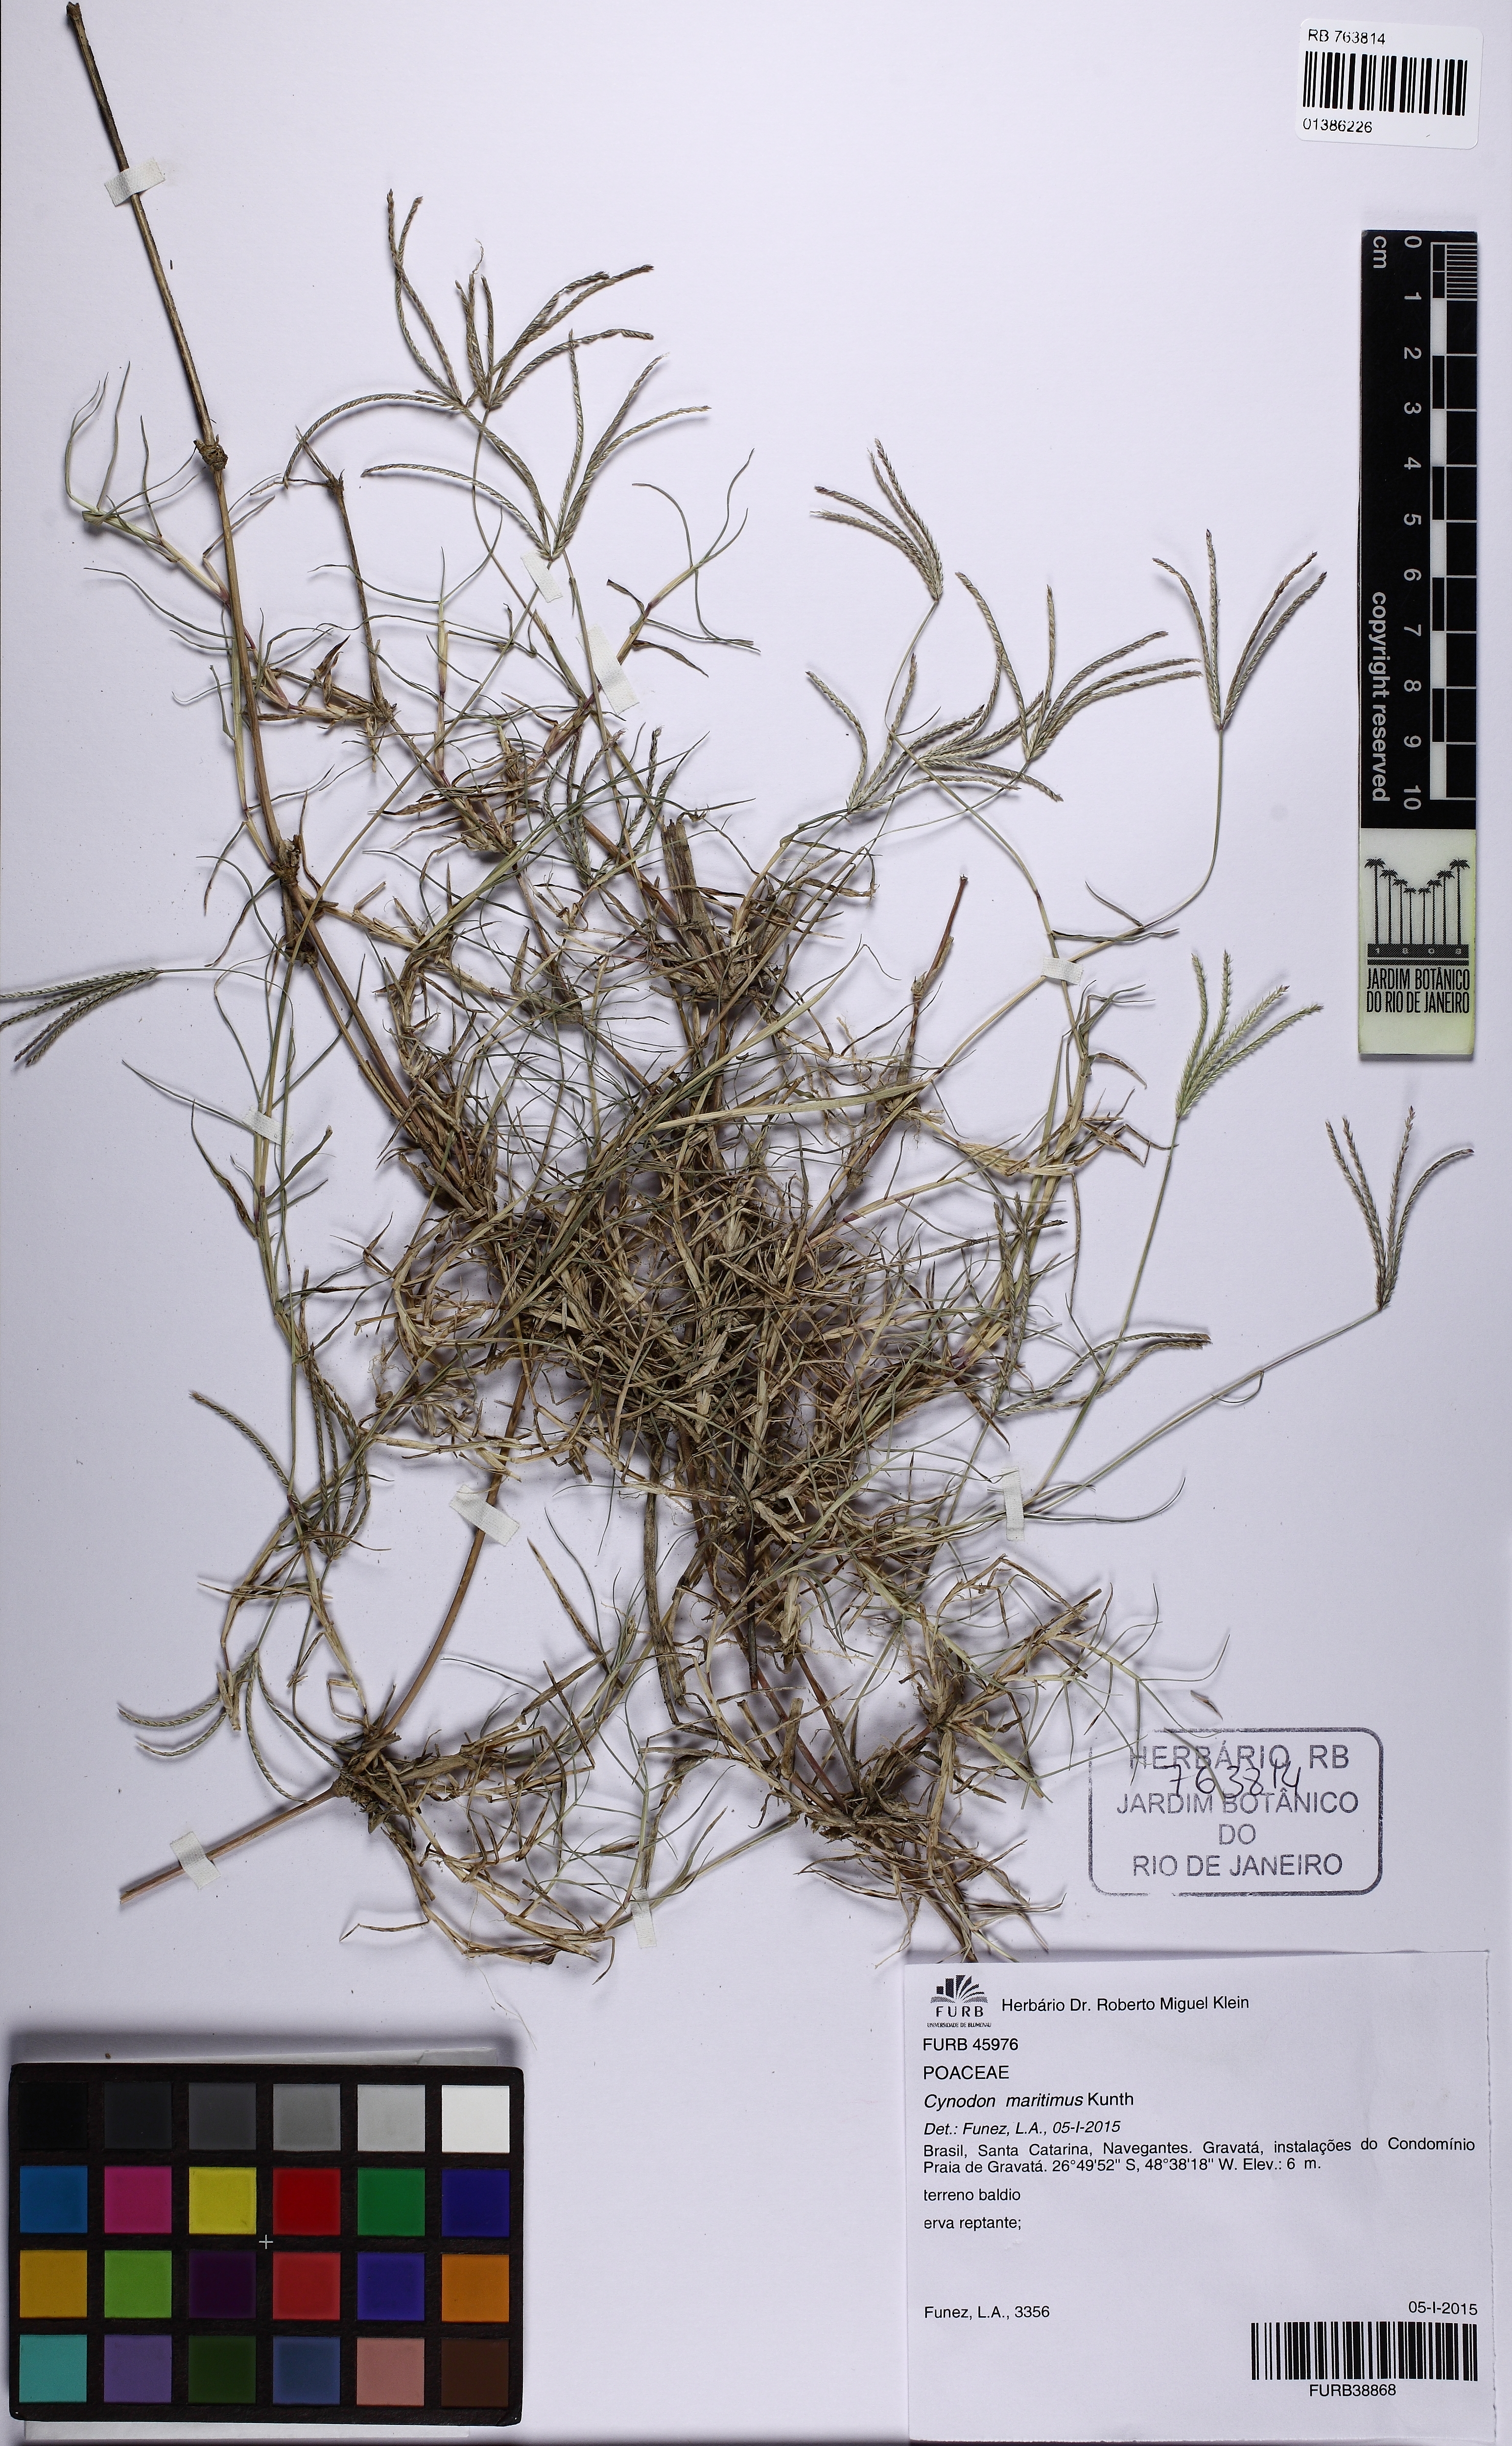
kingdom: Plantae
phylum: Tracheophyta
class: Liliopsida
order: Poales
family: Poaceae
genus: Cynodon
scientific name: Cynodon dactylon
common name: Bermuda grass
